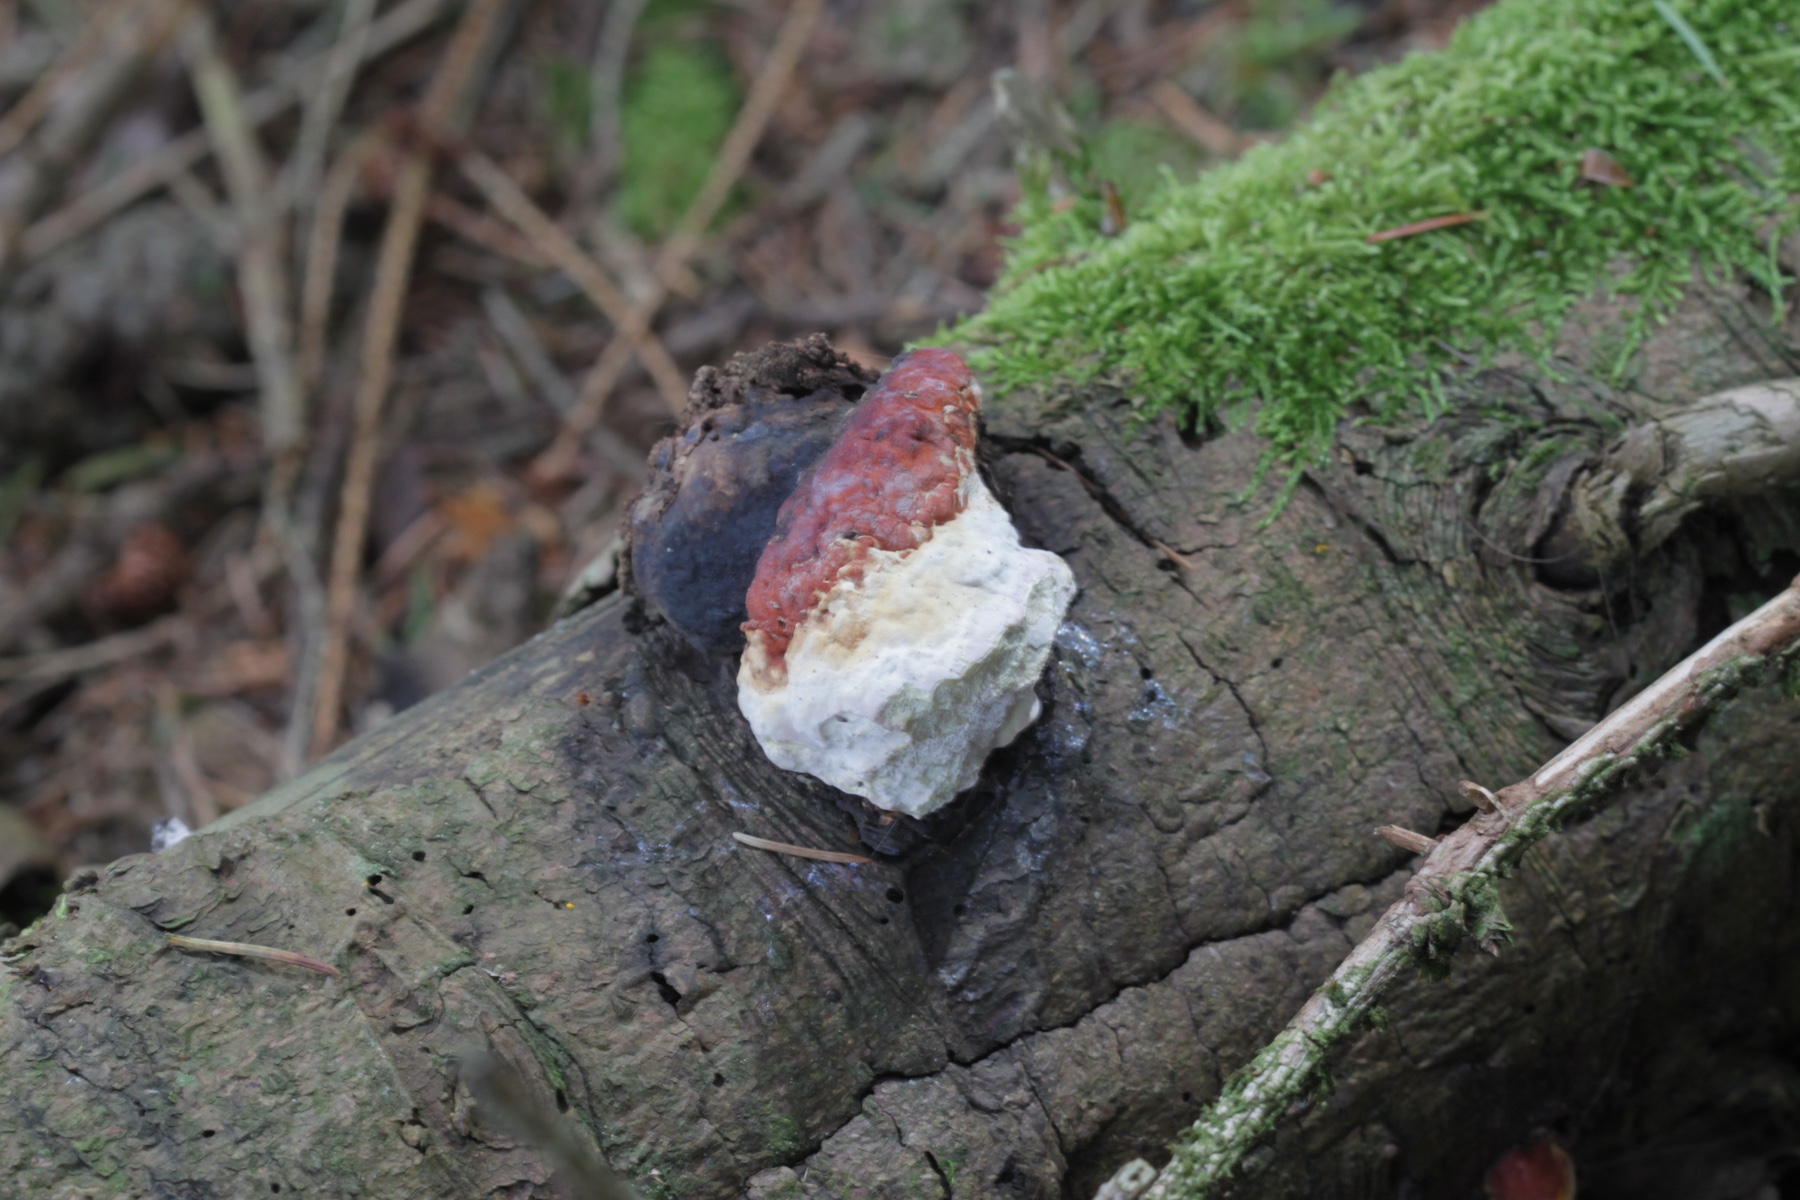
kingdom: Fungi
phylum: Basidiomycota
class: Agaricomycetes
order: Polyporales
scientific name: Polyporales
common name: poresvampordenen
